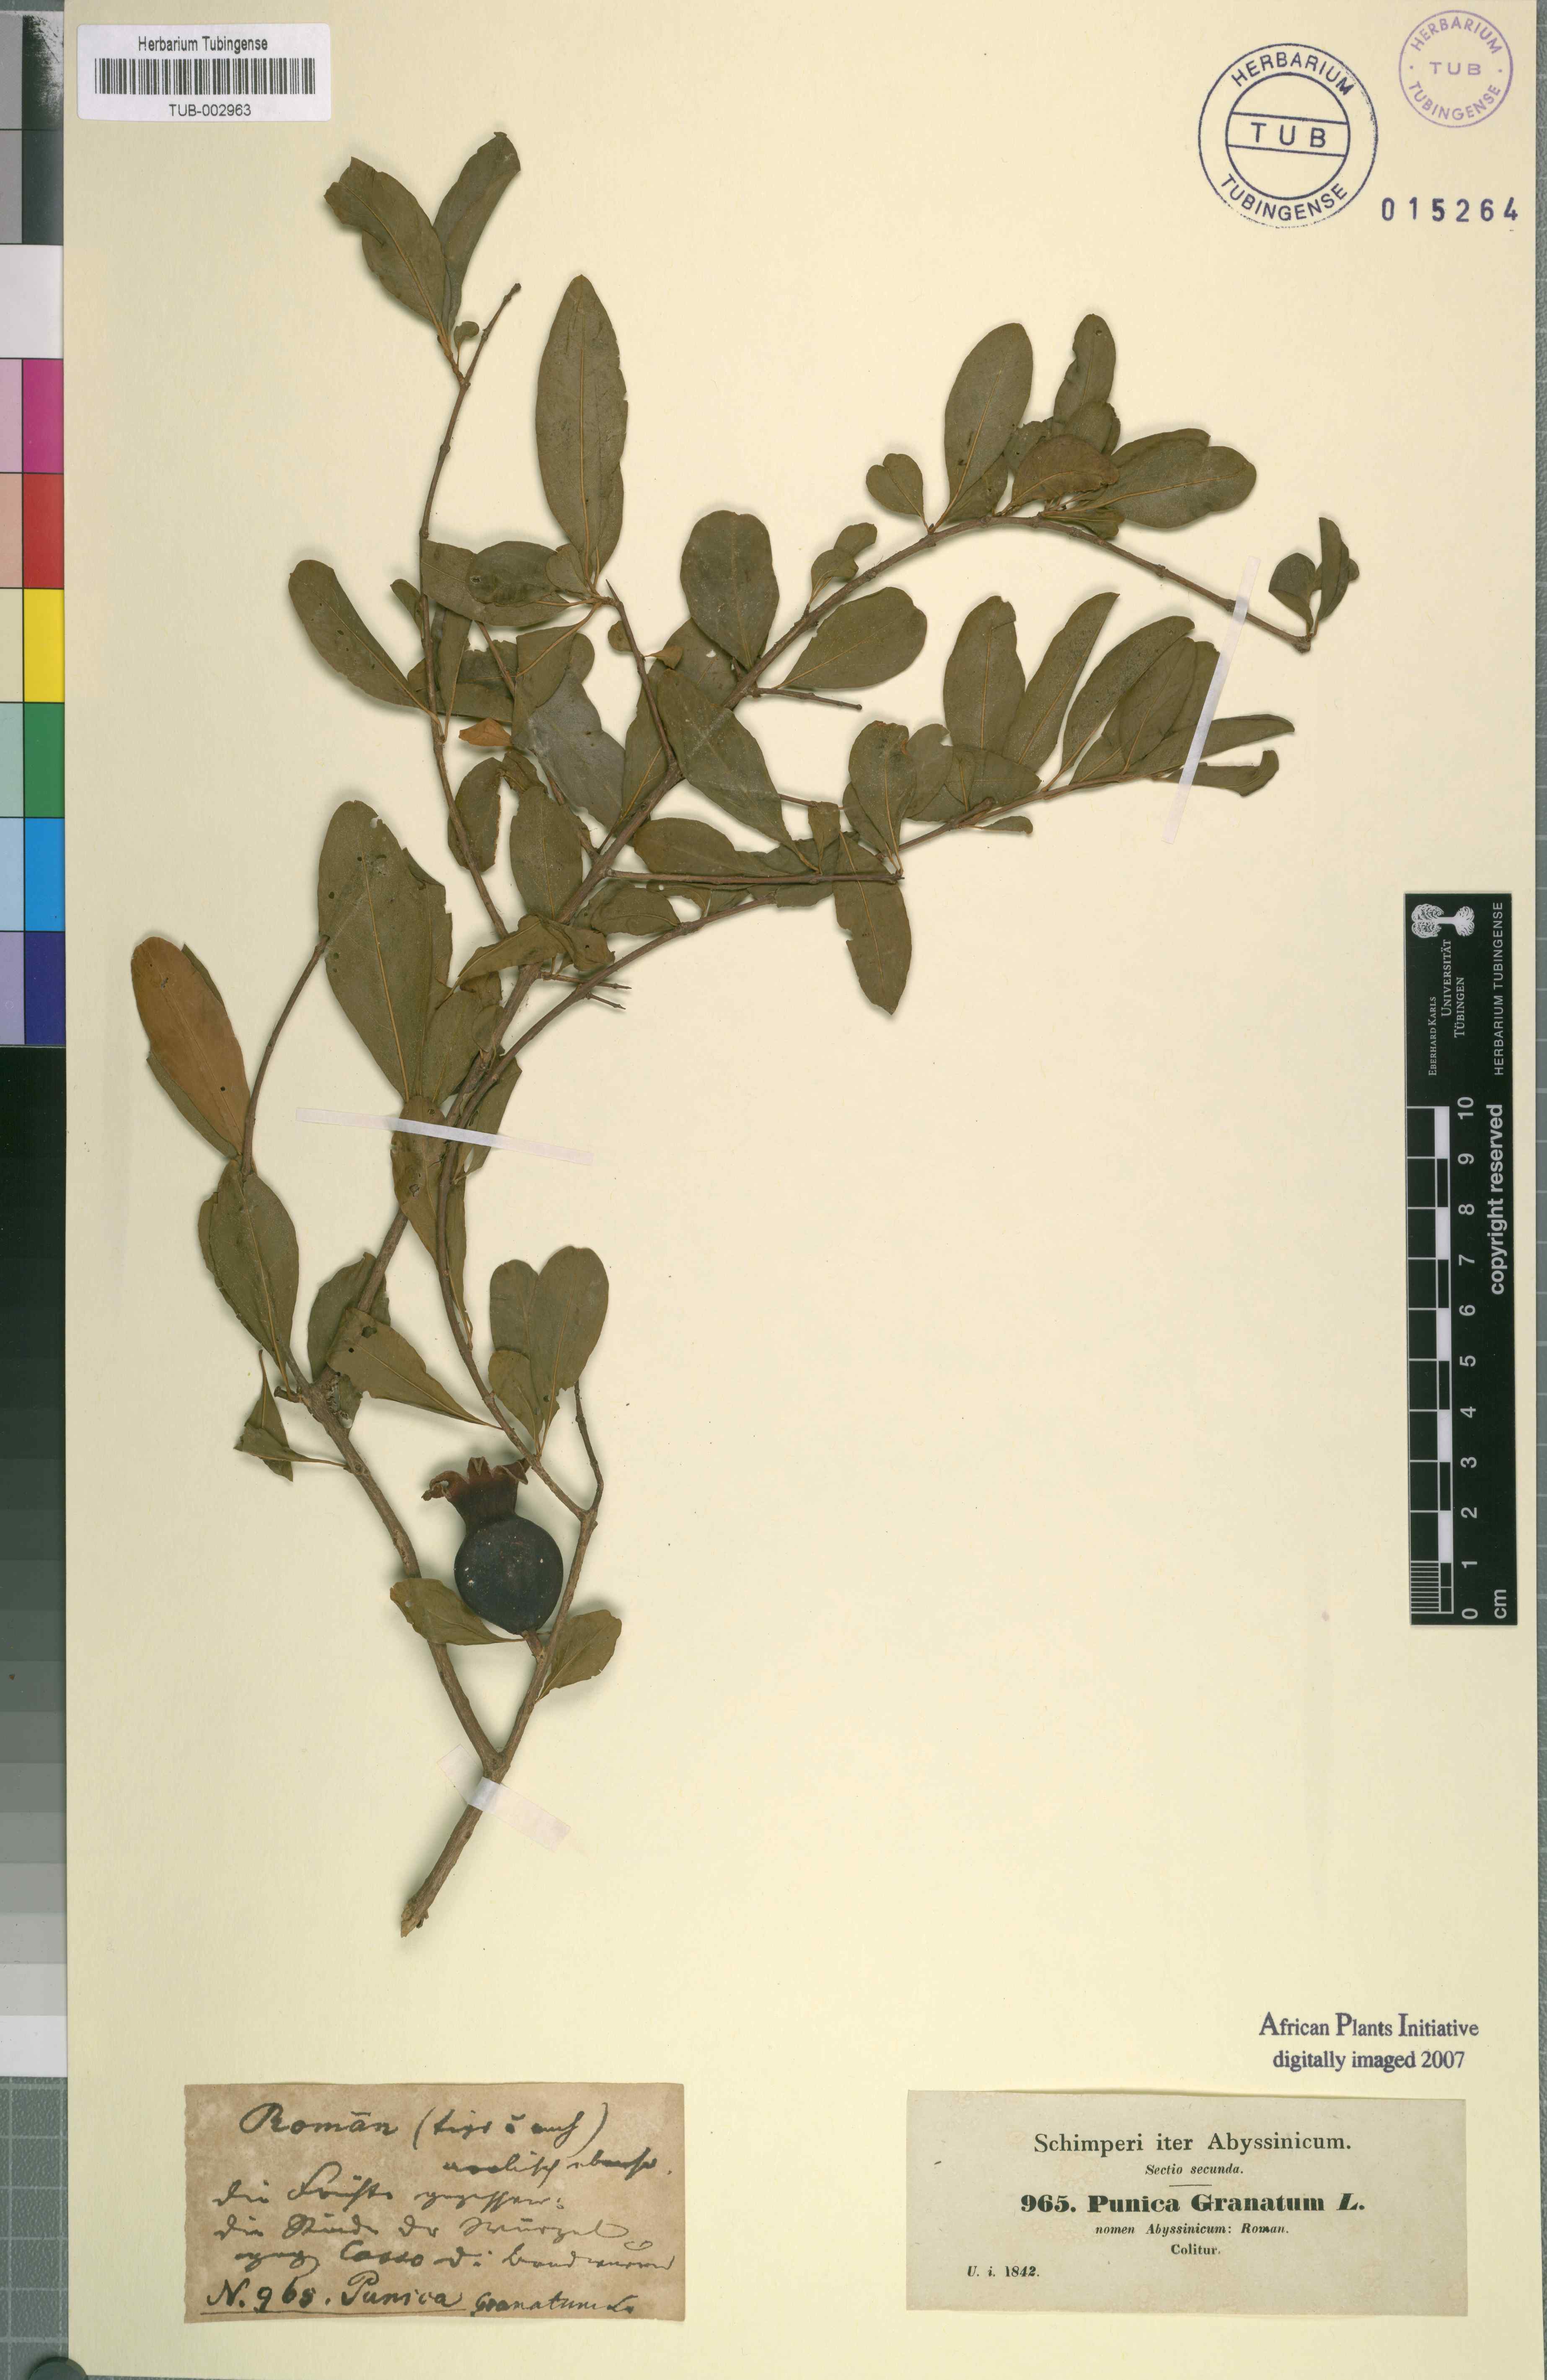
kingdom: Plantae
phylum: Tracheophyta
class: Magnoliopsida
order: Myrtales
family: Lythraceae
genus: Punica
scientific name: Punica granatum
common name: Pomegranate
